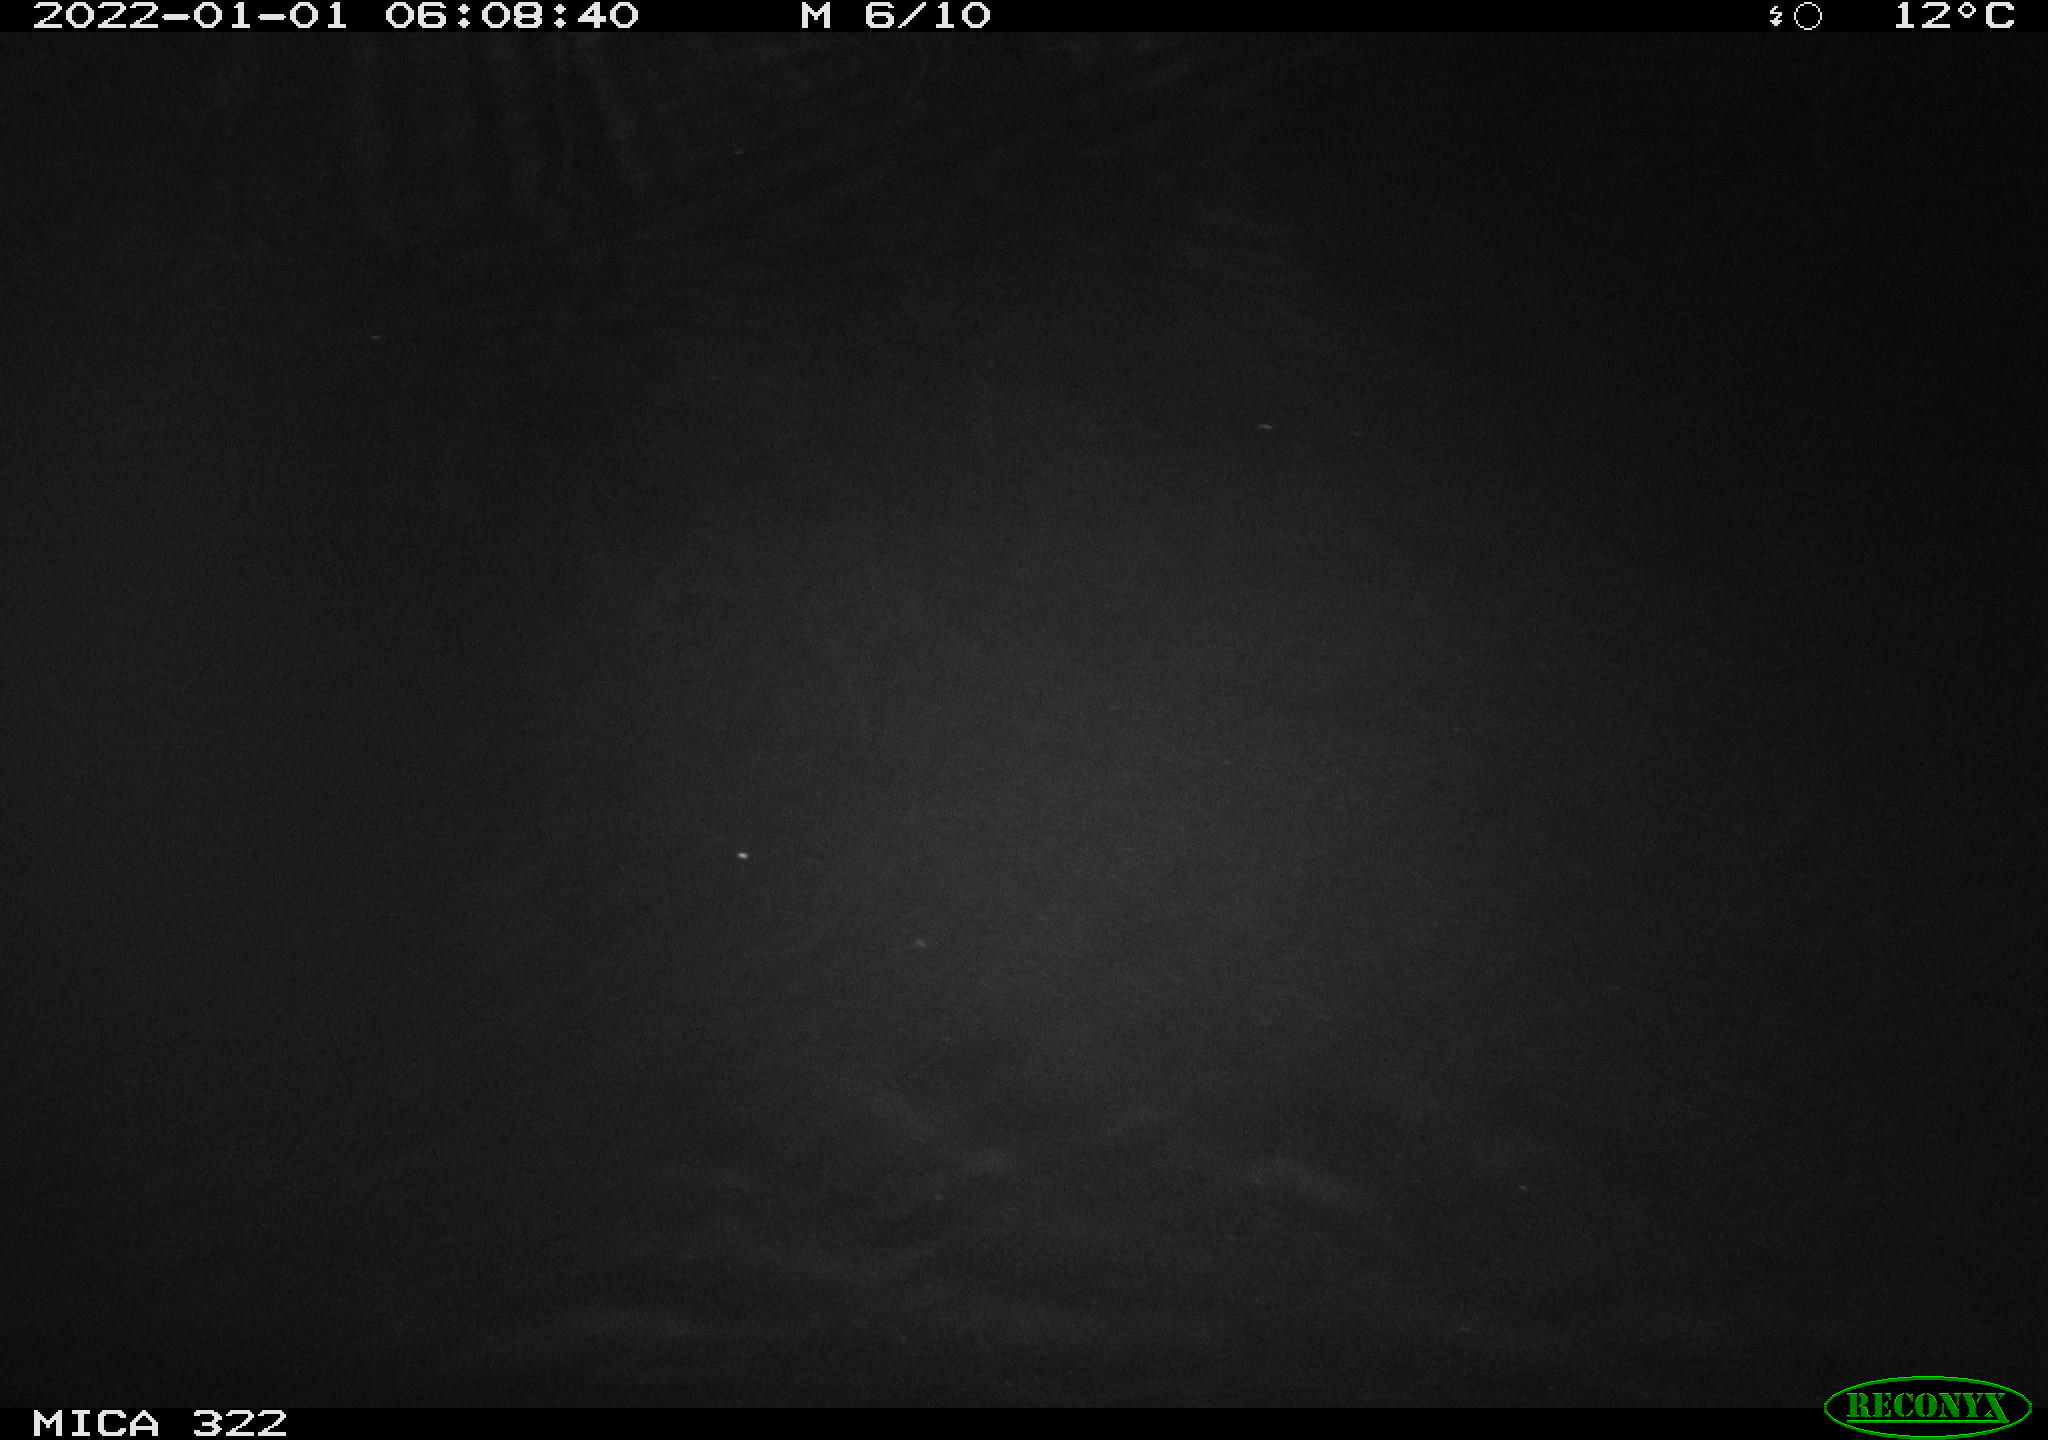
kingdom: Animalia
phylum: Chordata
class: Mammalia
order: Rodentia
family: Muridae
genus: Rattus
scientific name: Rattus norvegicus
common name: Brown rat
